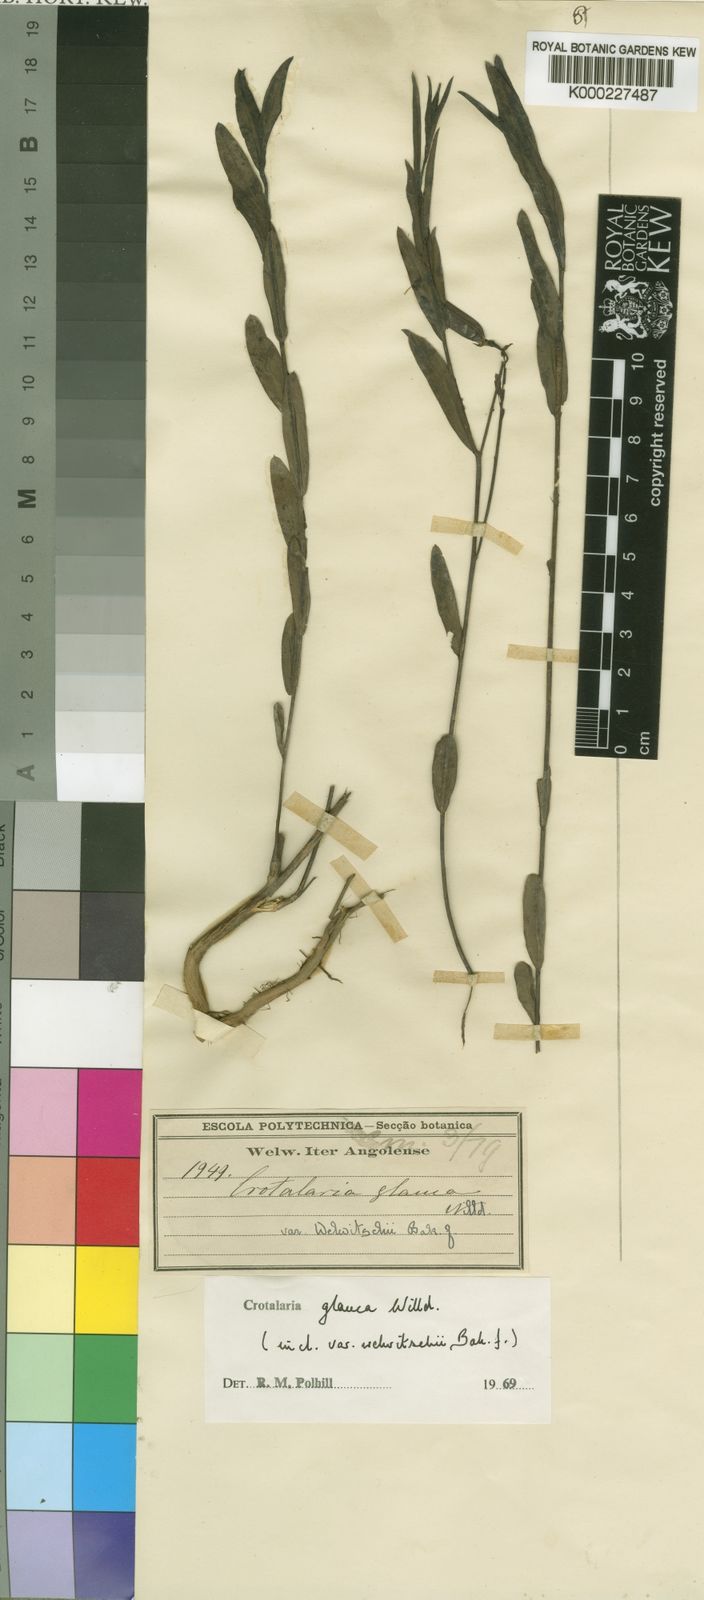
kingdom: Plantae
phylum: Tracheophyta
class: Magnoliopsida
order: Fabales
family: Fabaceae
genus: Crotalaria
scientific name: Crotalaria glauca
